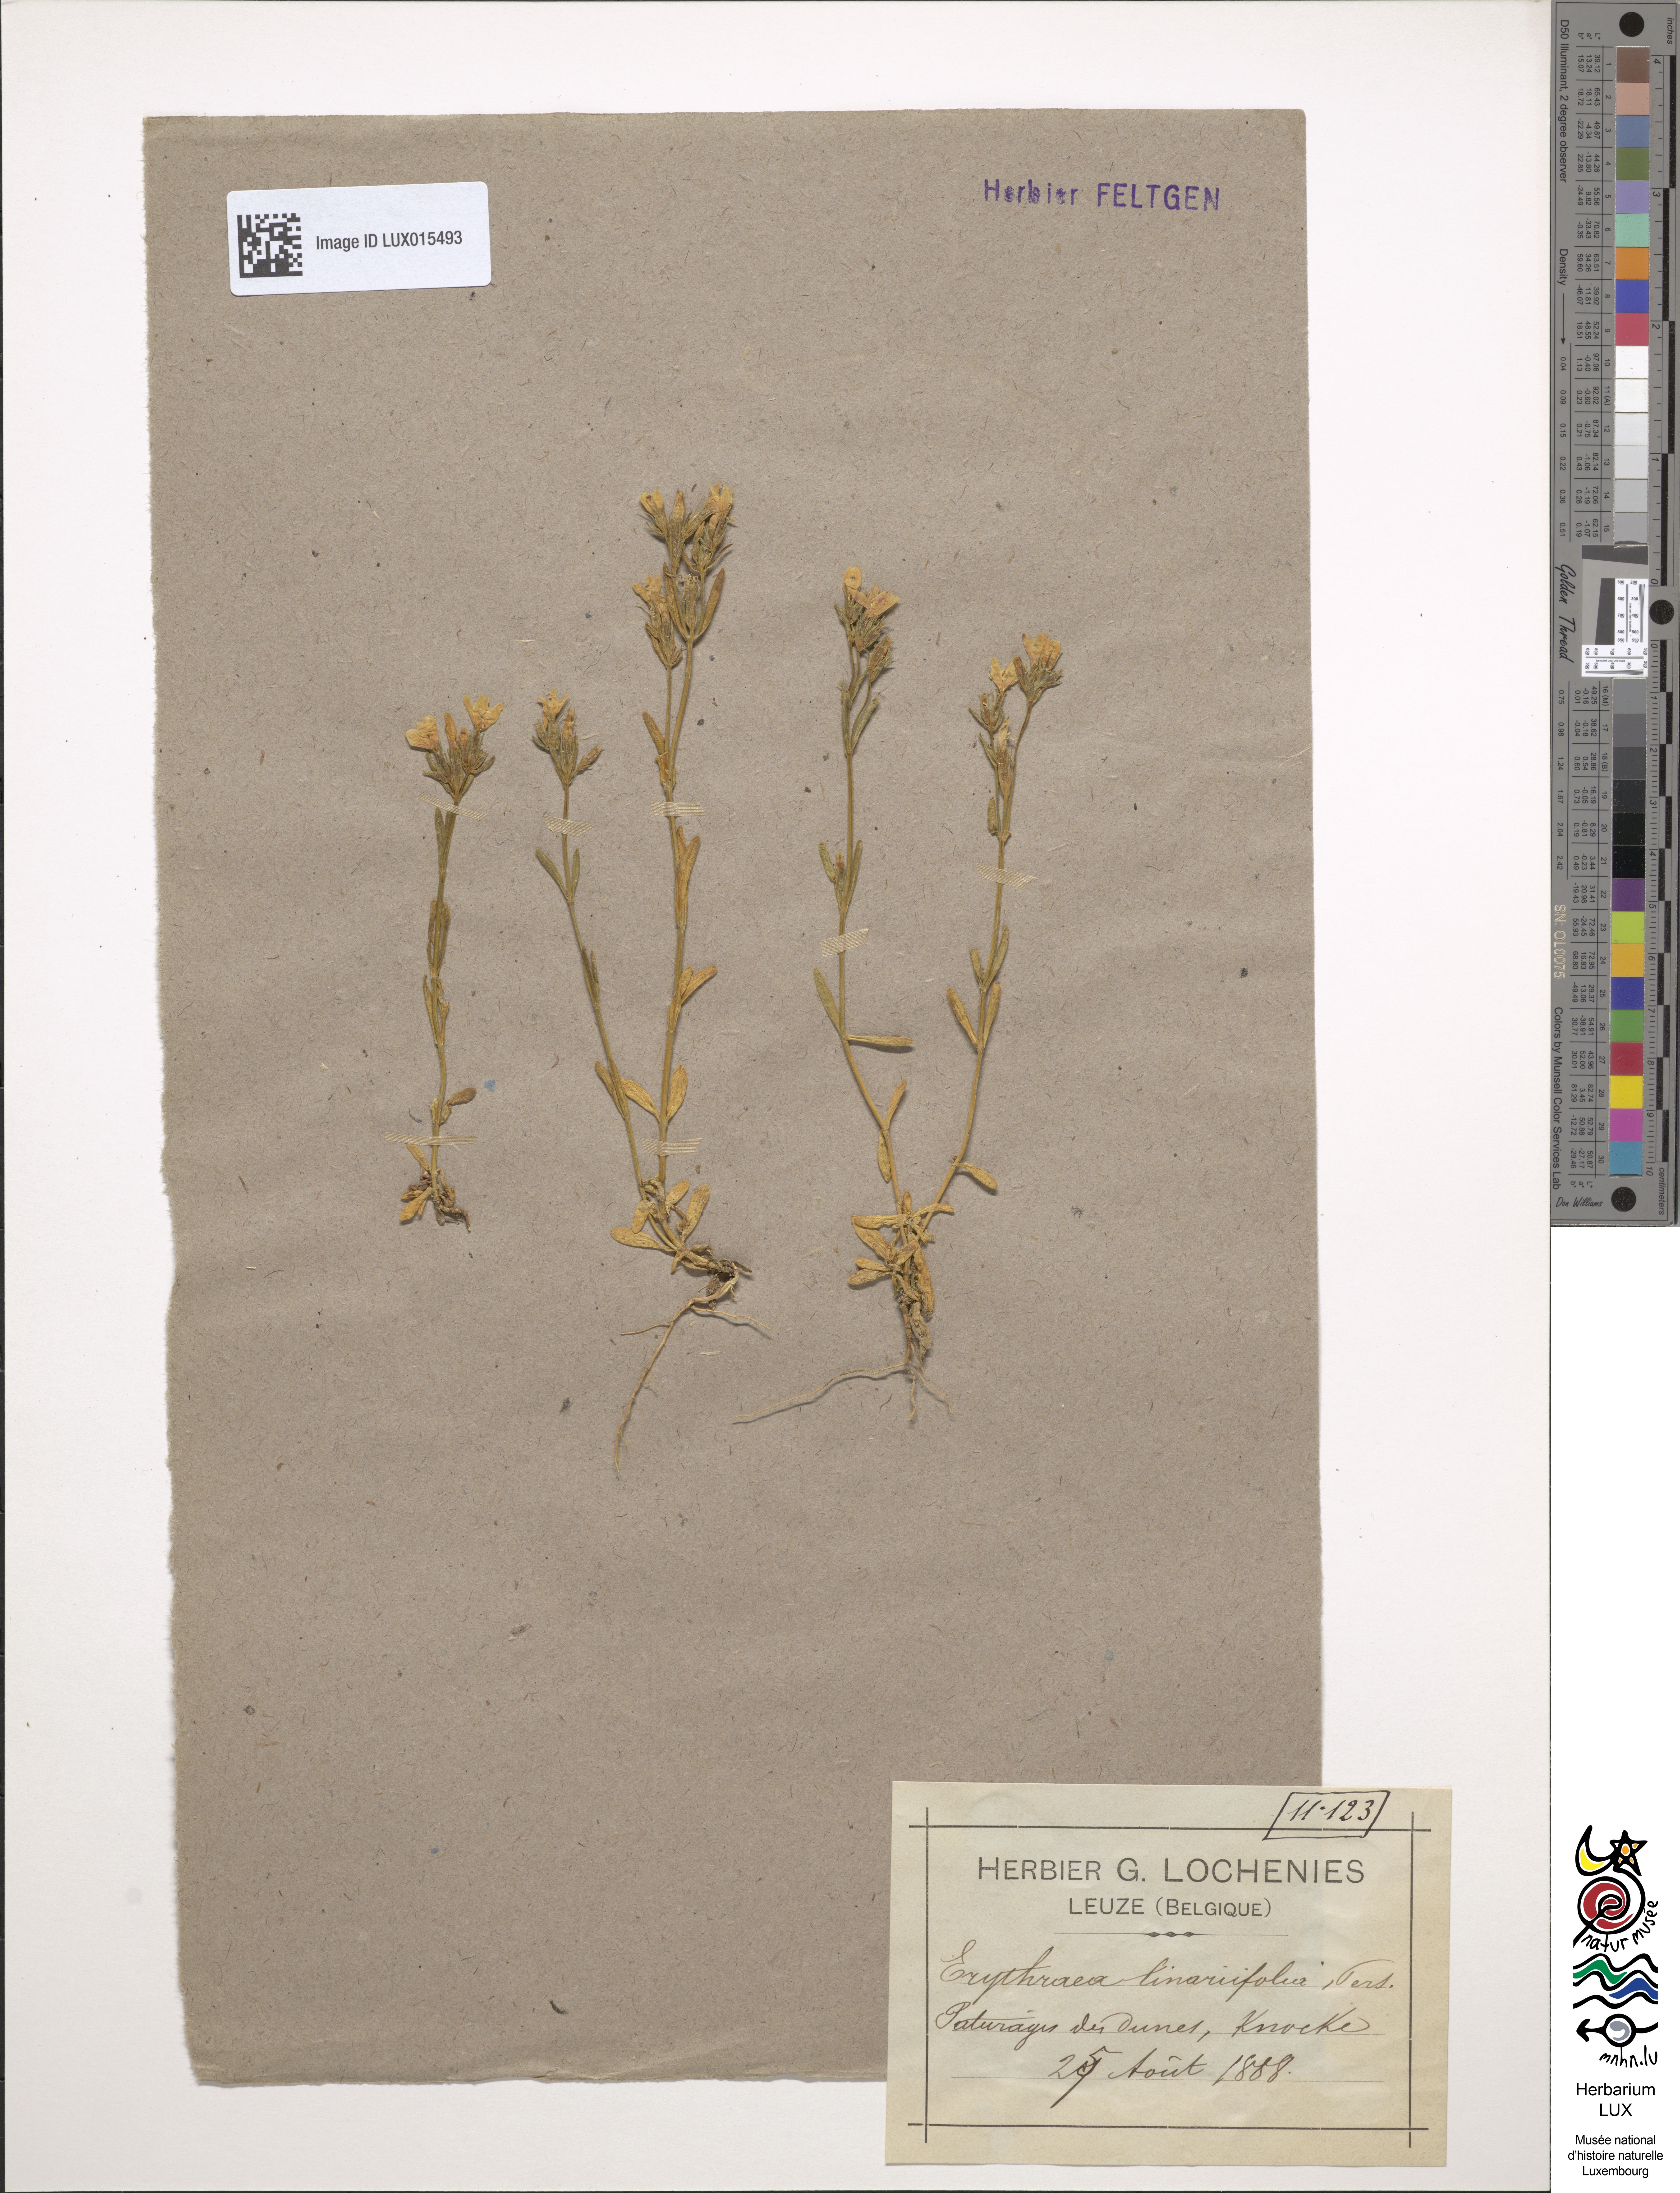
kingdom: Plantae
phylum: Tracheophyta
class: Magnoliopsida
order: Gentianales
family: Gentianaceae
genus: Centaurium
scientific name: Centaurium littorale
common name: Seaside centaury
